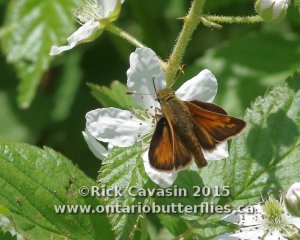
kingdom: Animalia
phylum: Arthropoda
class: Insecta
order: Lepidoptera
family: Hesperiidae
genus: Hesperia
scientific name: Hesperia sassacus
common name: Sassacus Skipper
